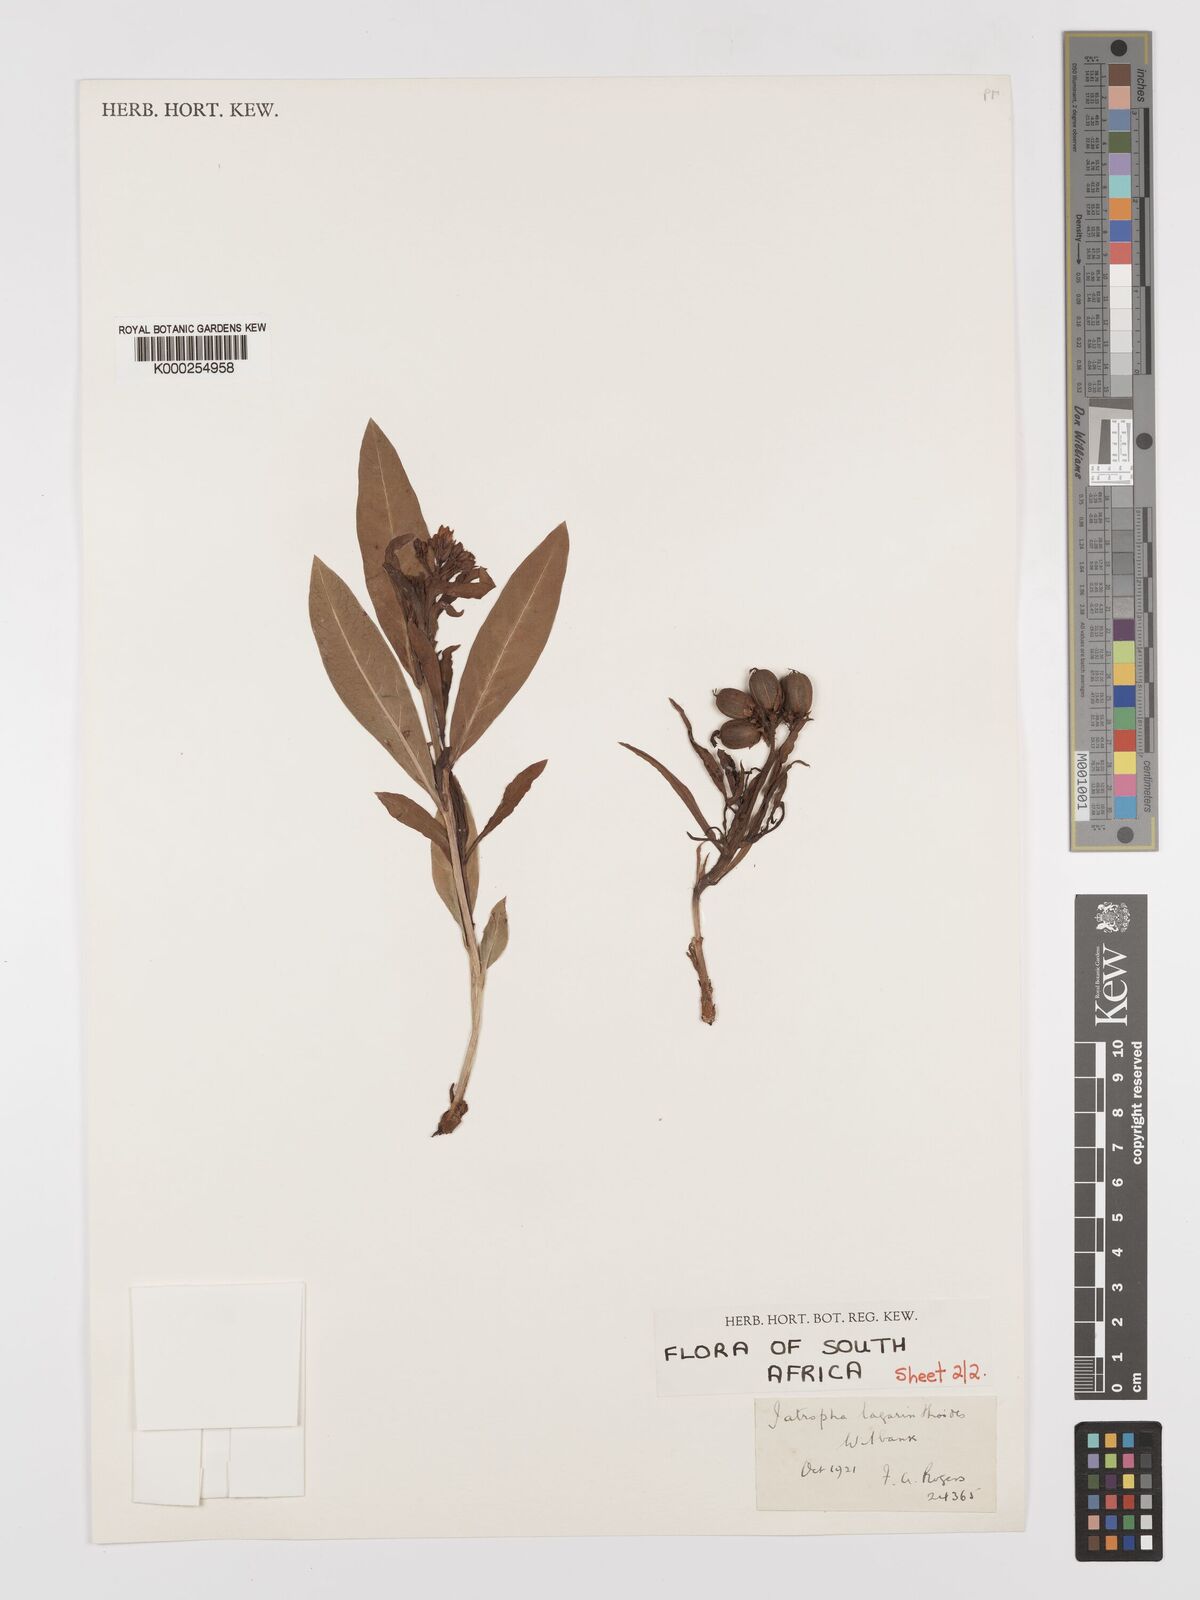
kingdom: Plantae
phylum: Tracheophyta
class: Magnoliopsida
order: Malpighiales
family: Euphorbiaceae
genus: Jatropha
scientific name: Jatropha lagarinthoides
